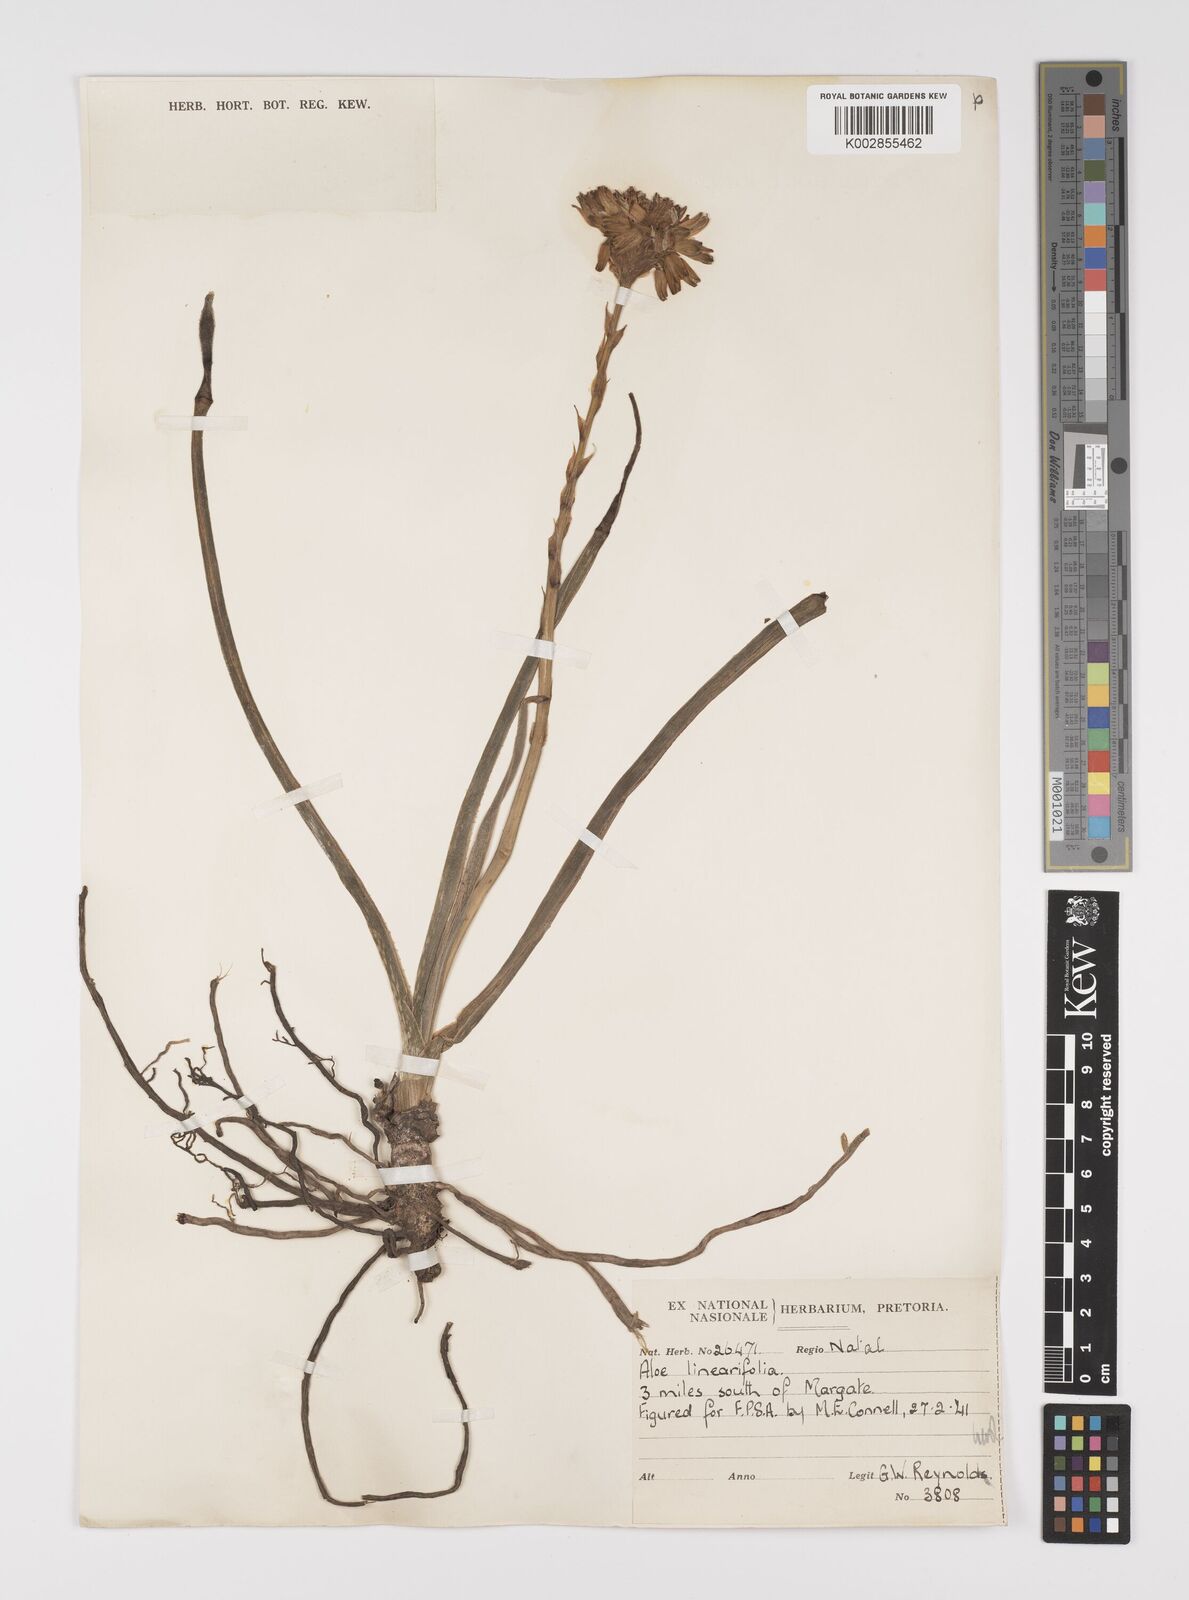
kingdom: Plantae
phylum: Tracheophyta
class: Liliopsida
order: Asparagales
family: Asphodelaceae
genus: Aloe
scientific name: Aloe linearifolia
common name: Dwarf yellow grass aloe
